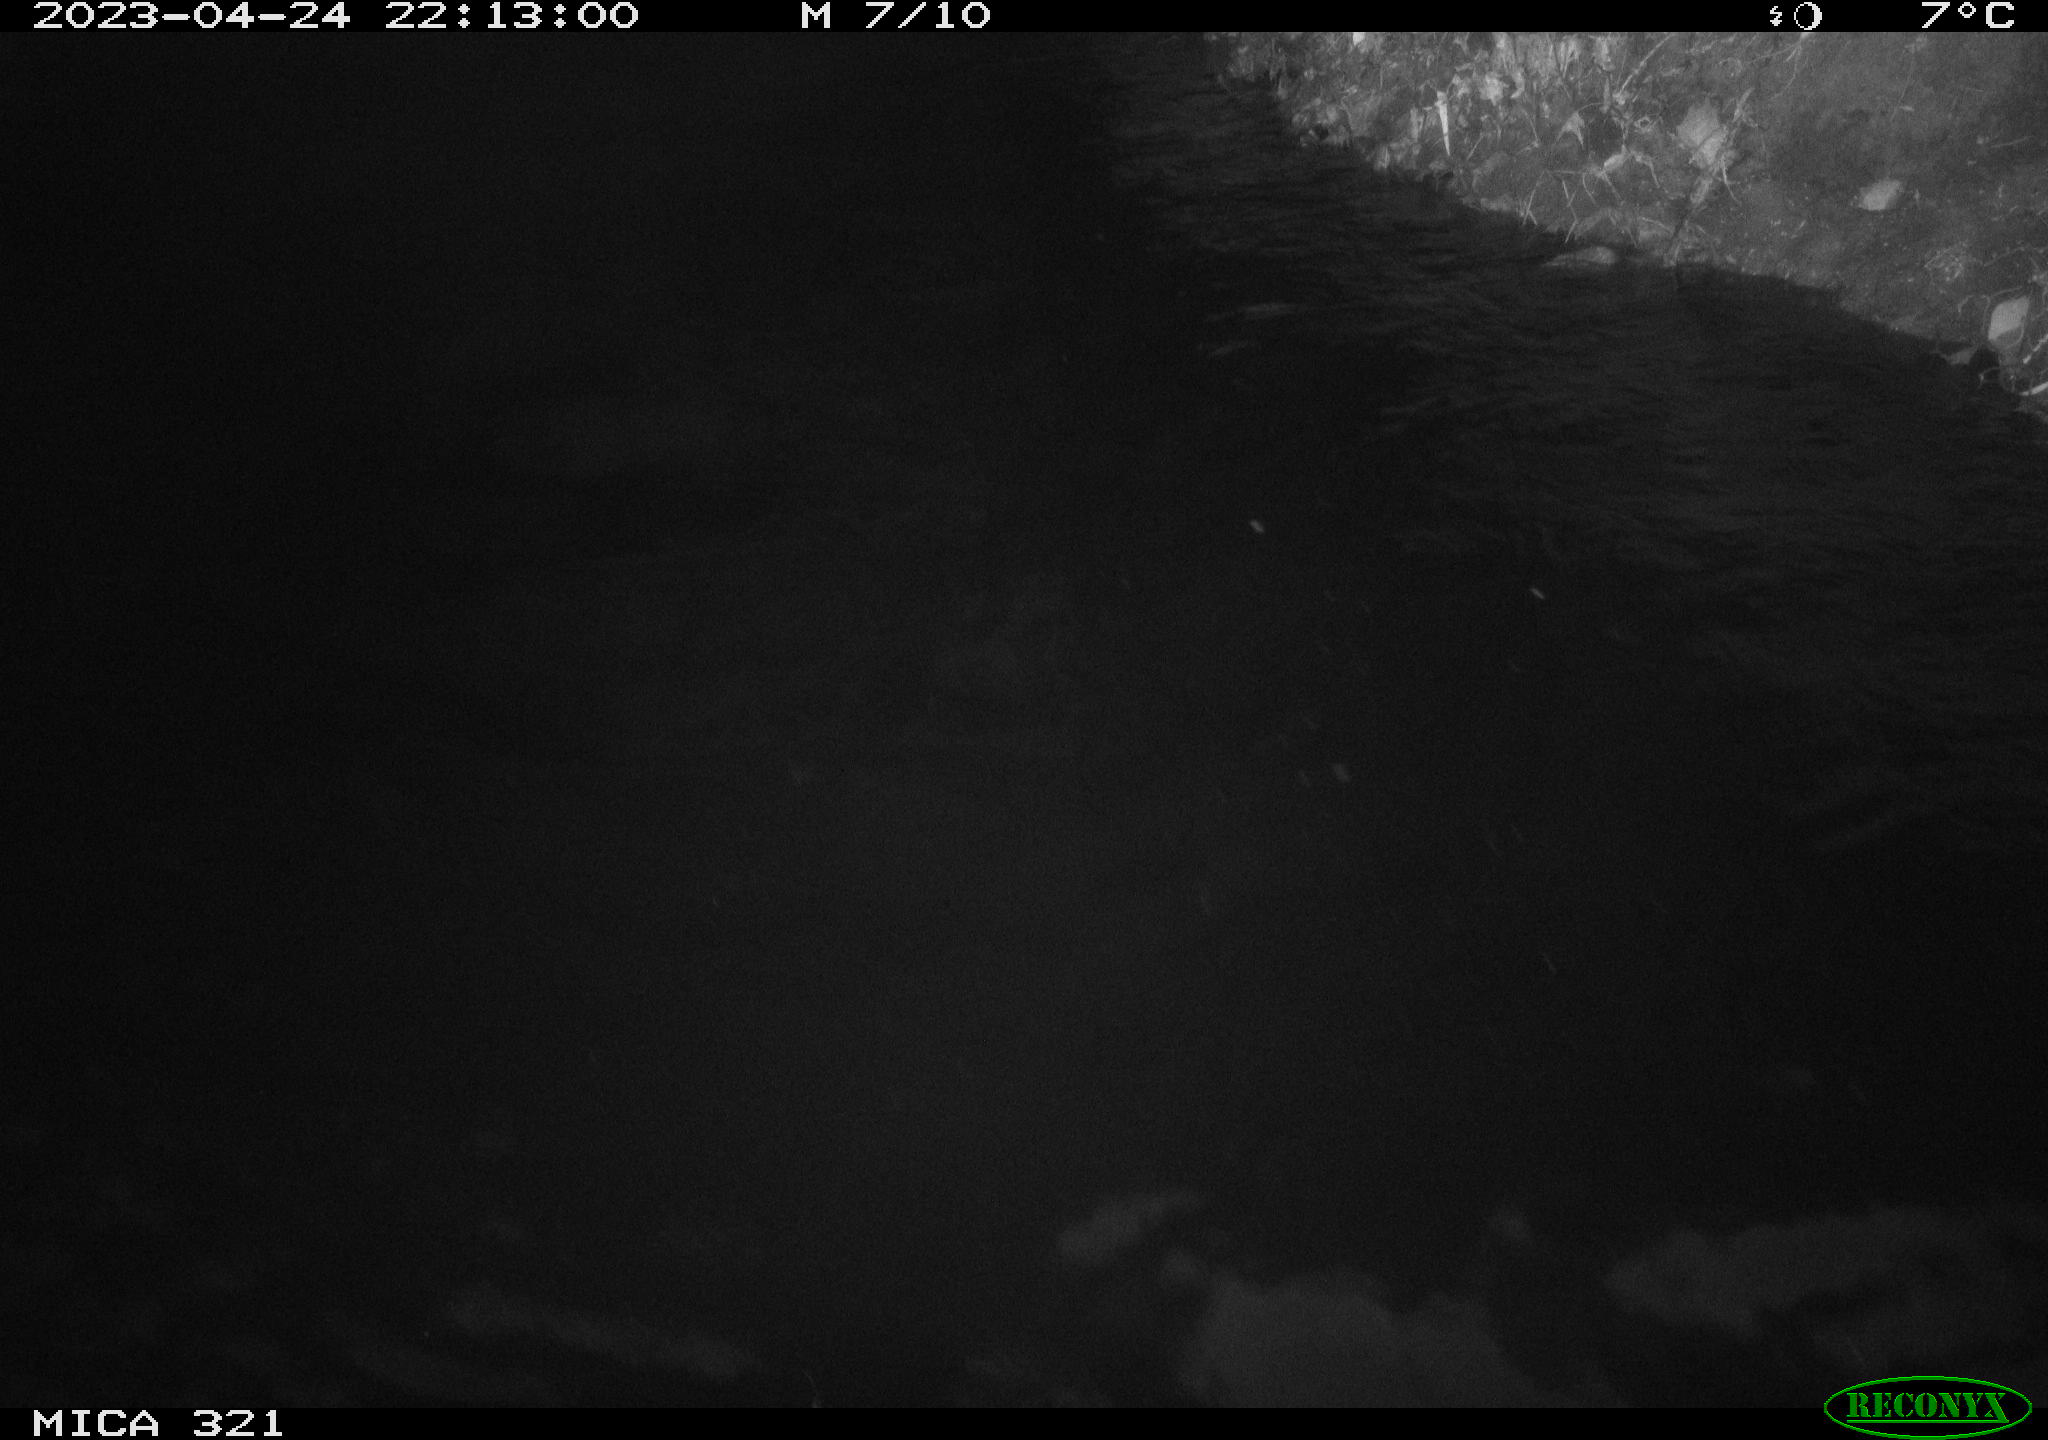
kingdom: Animalia
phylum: Chordata
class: Aves
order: Gruiformes
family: Rallidae
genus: Fulica
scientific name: Fulica atra
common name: Eurasian coot
